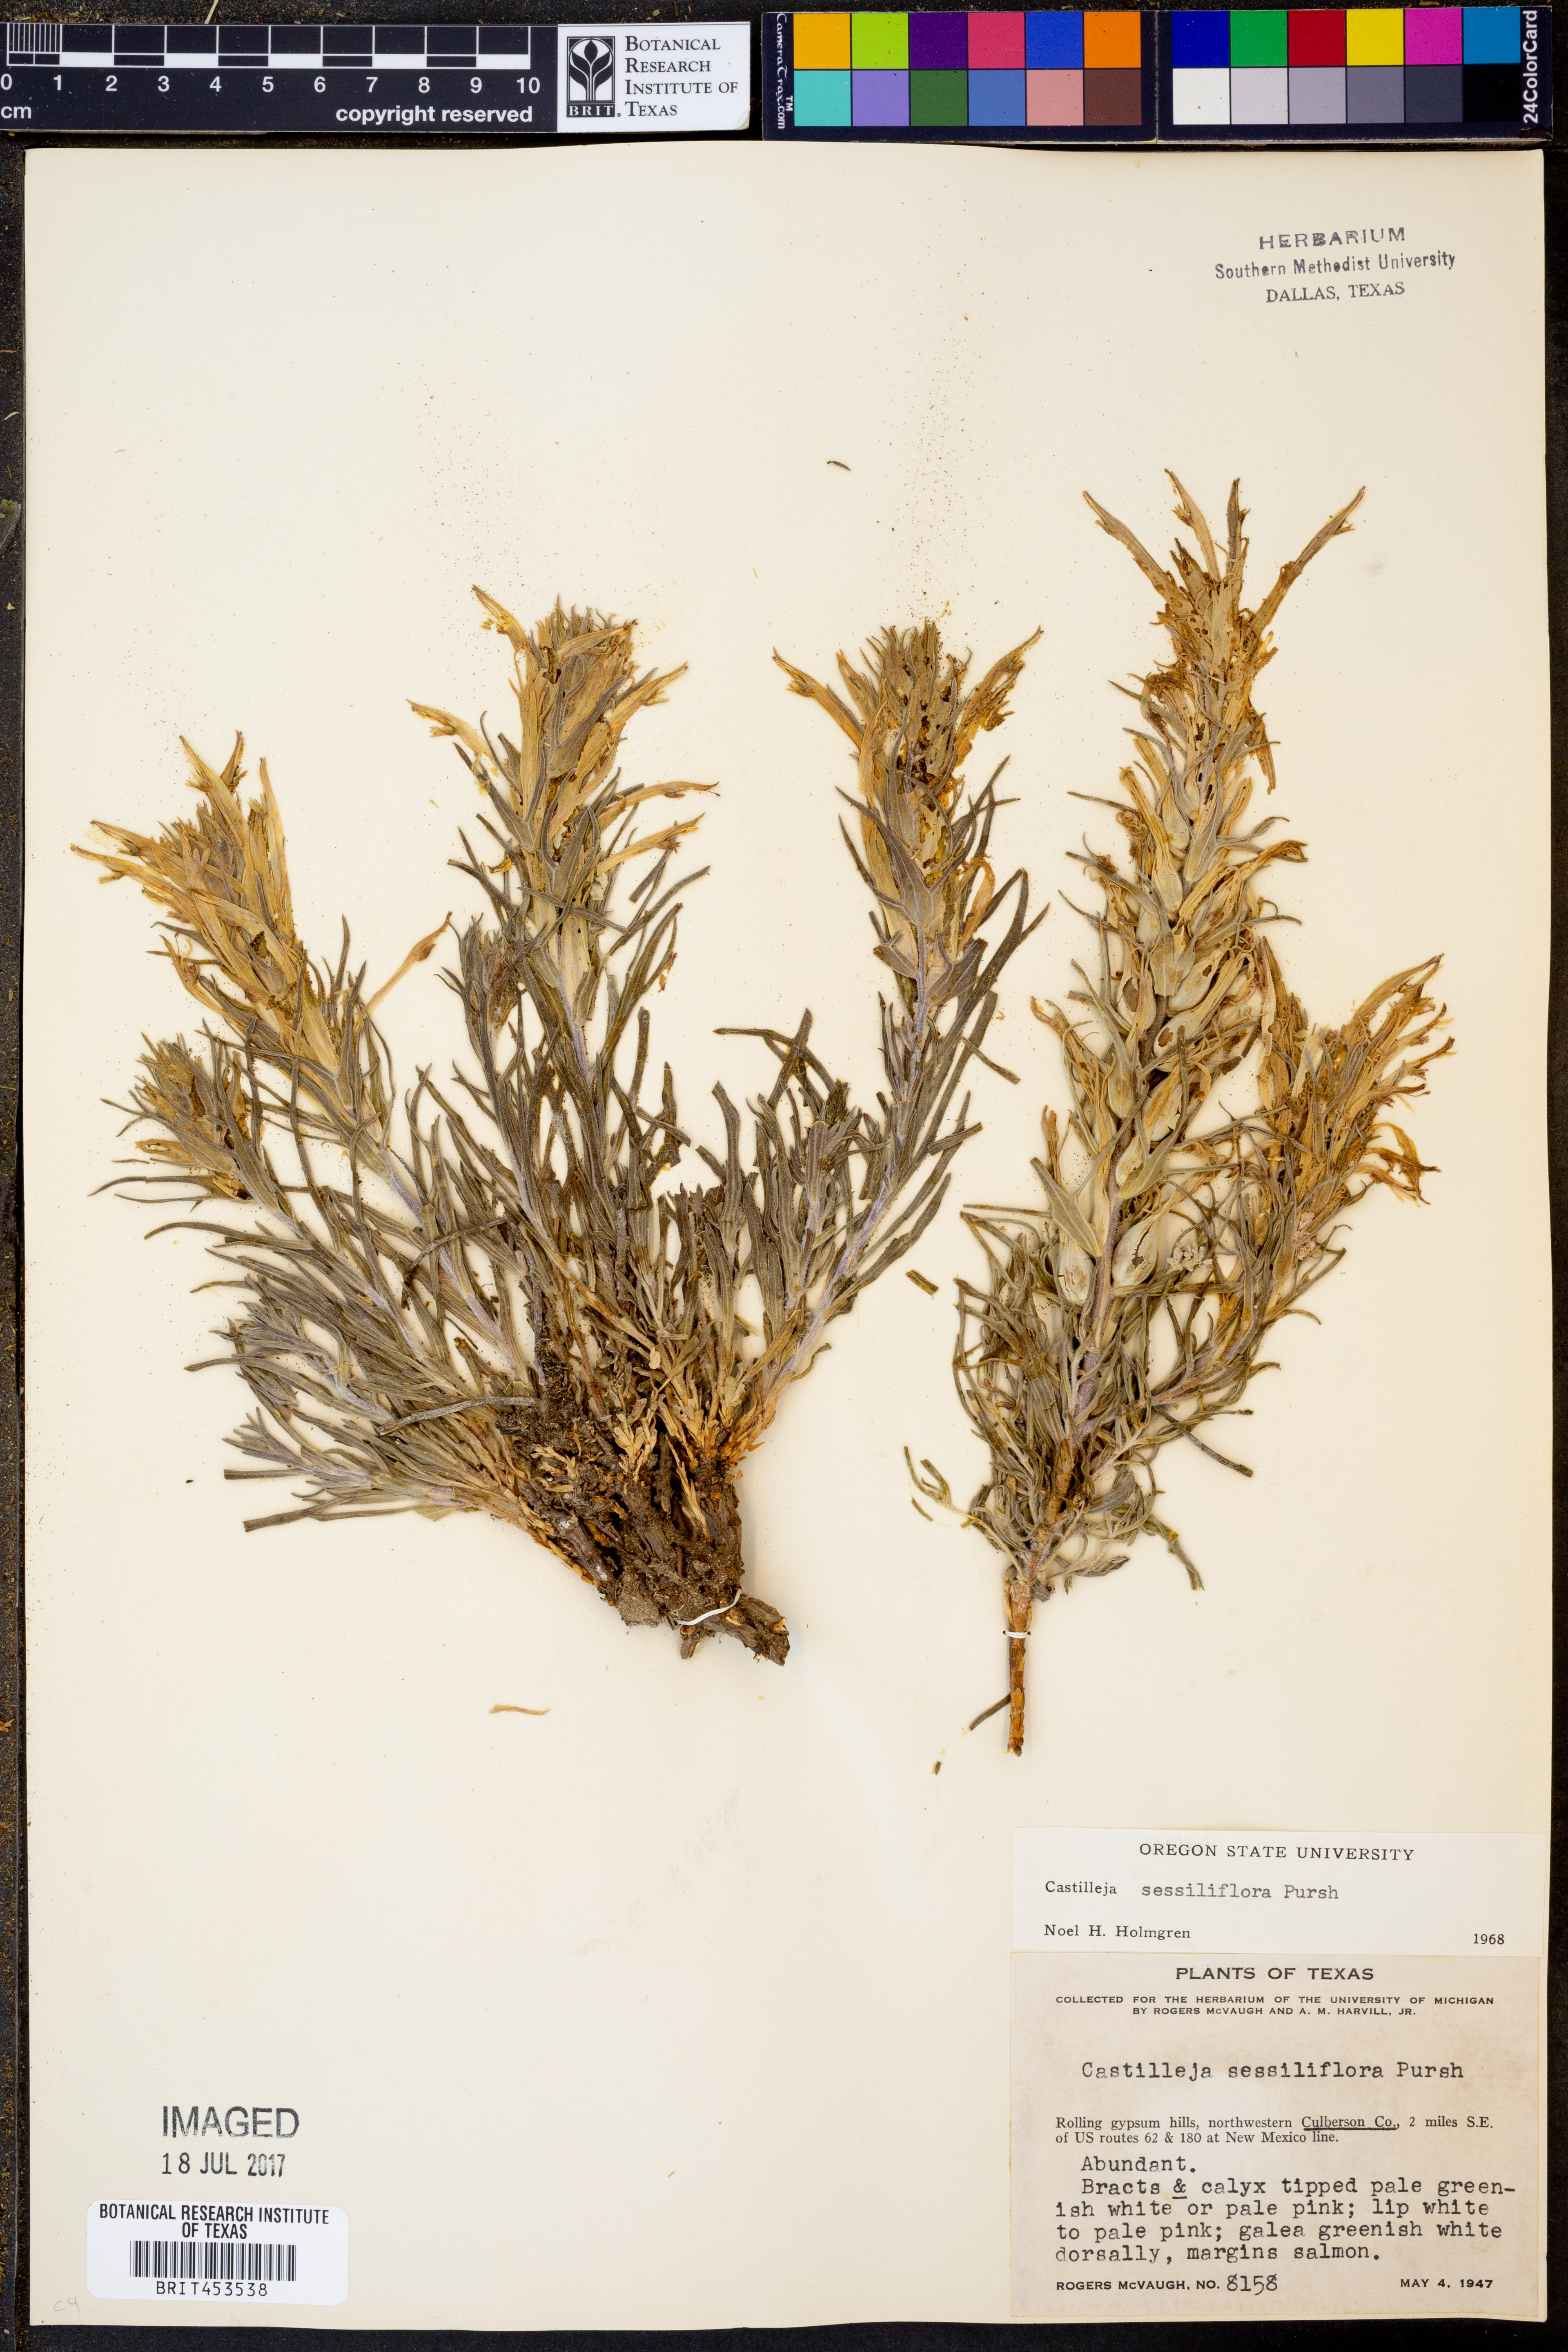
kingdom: Plantae
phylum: Tracheophyta
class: Magnoliopsida
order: Lamiales
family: Orobanchaceae
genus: Castilleja
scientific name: Castilleja sessiliflora
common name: Downy paintbrush
